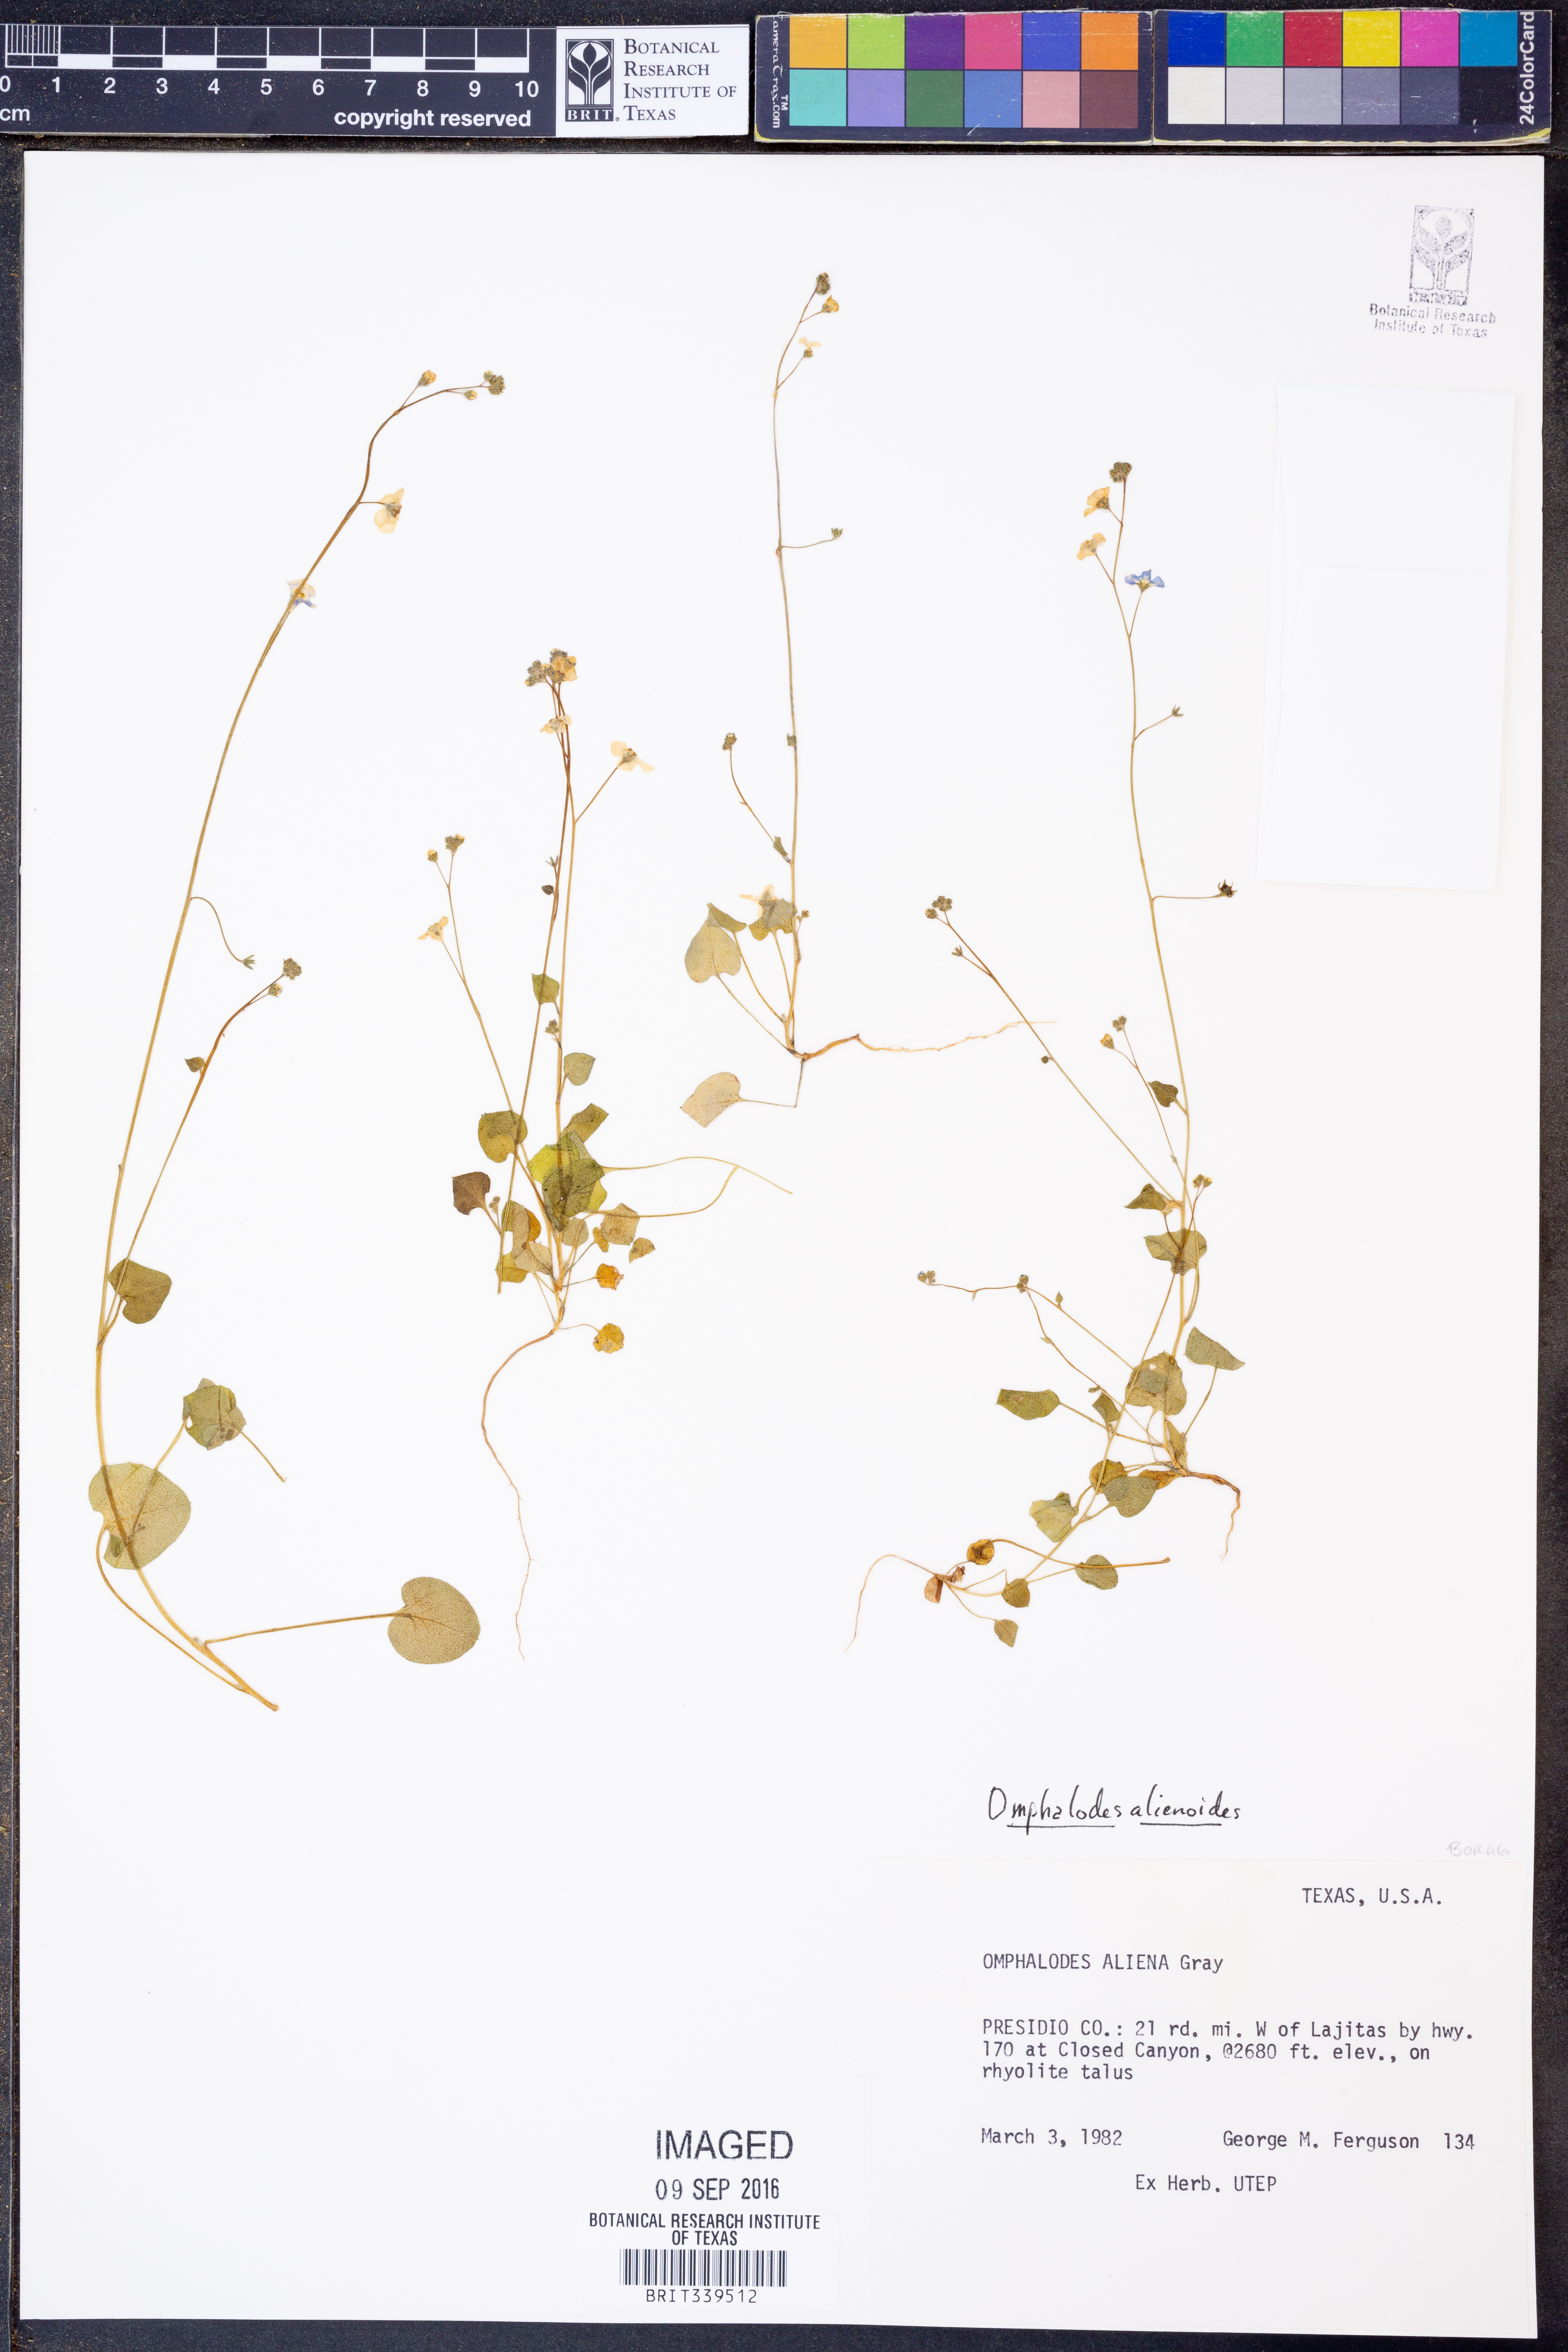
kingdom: Plantae
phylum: Tracheophyta
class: Magnoliopsida
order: Boraginales
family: Boraginaceae
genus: Mimophytum
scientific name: Mimophytum alienoides
